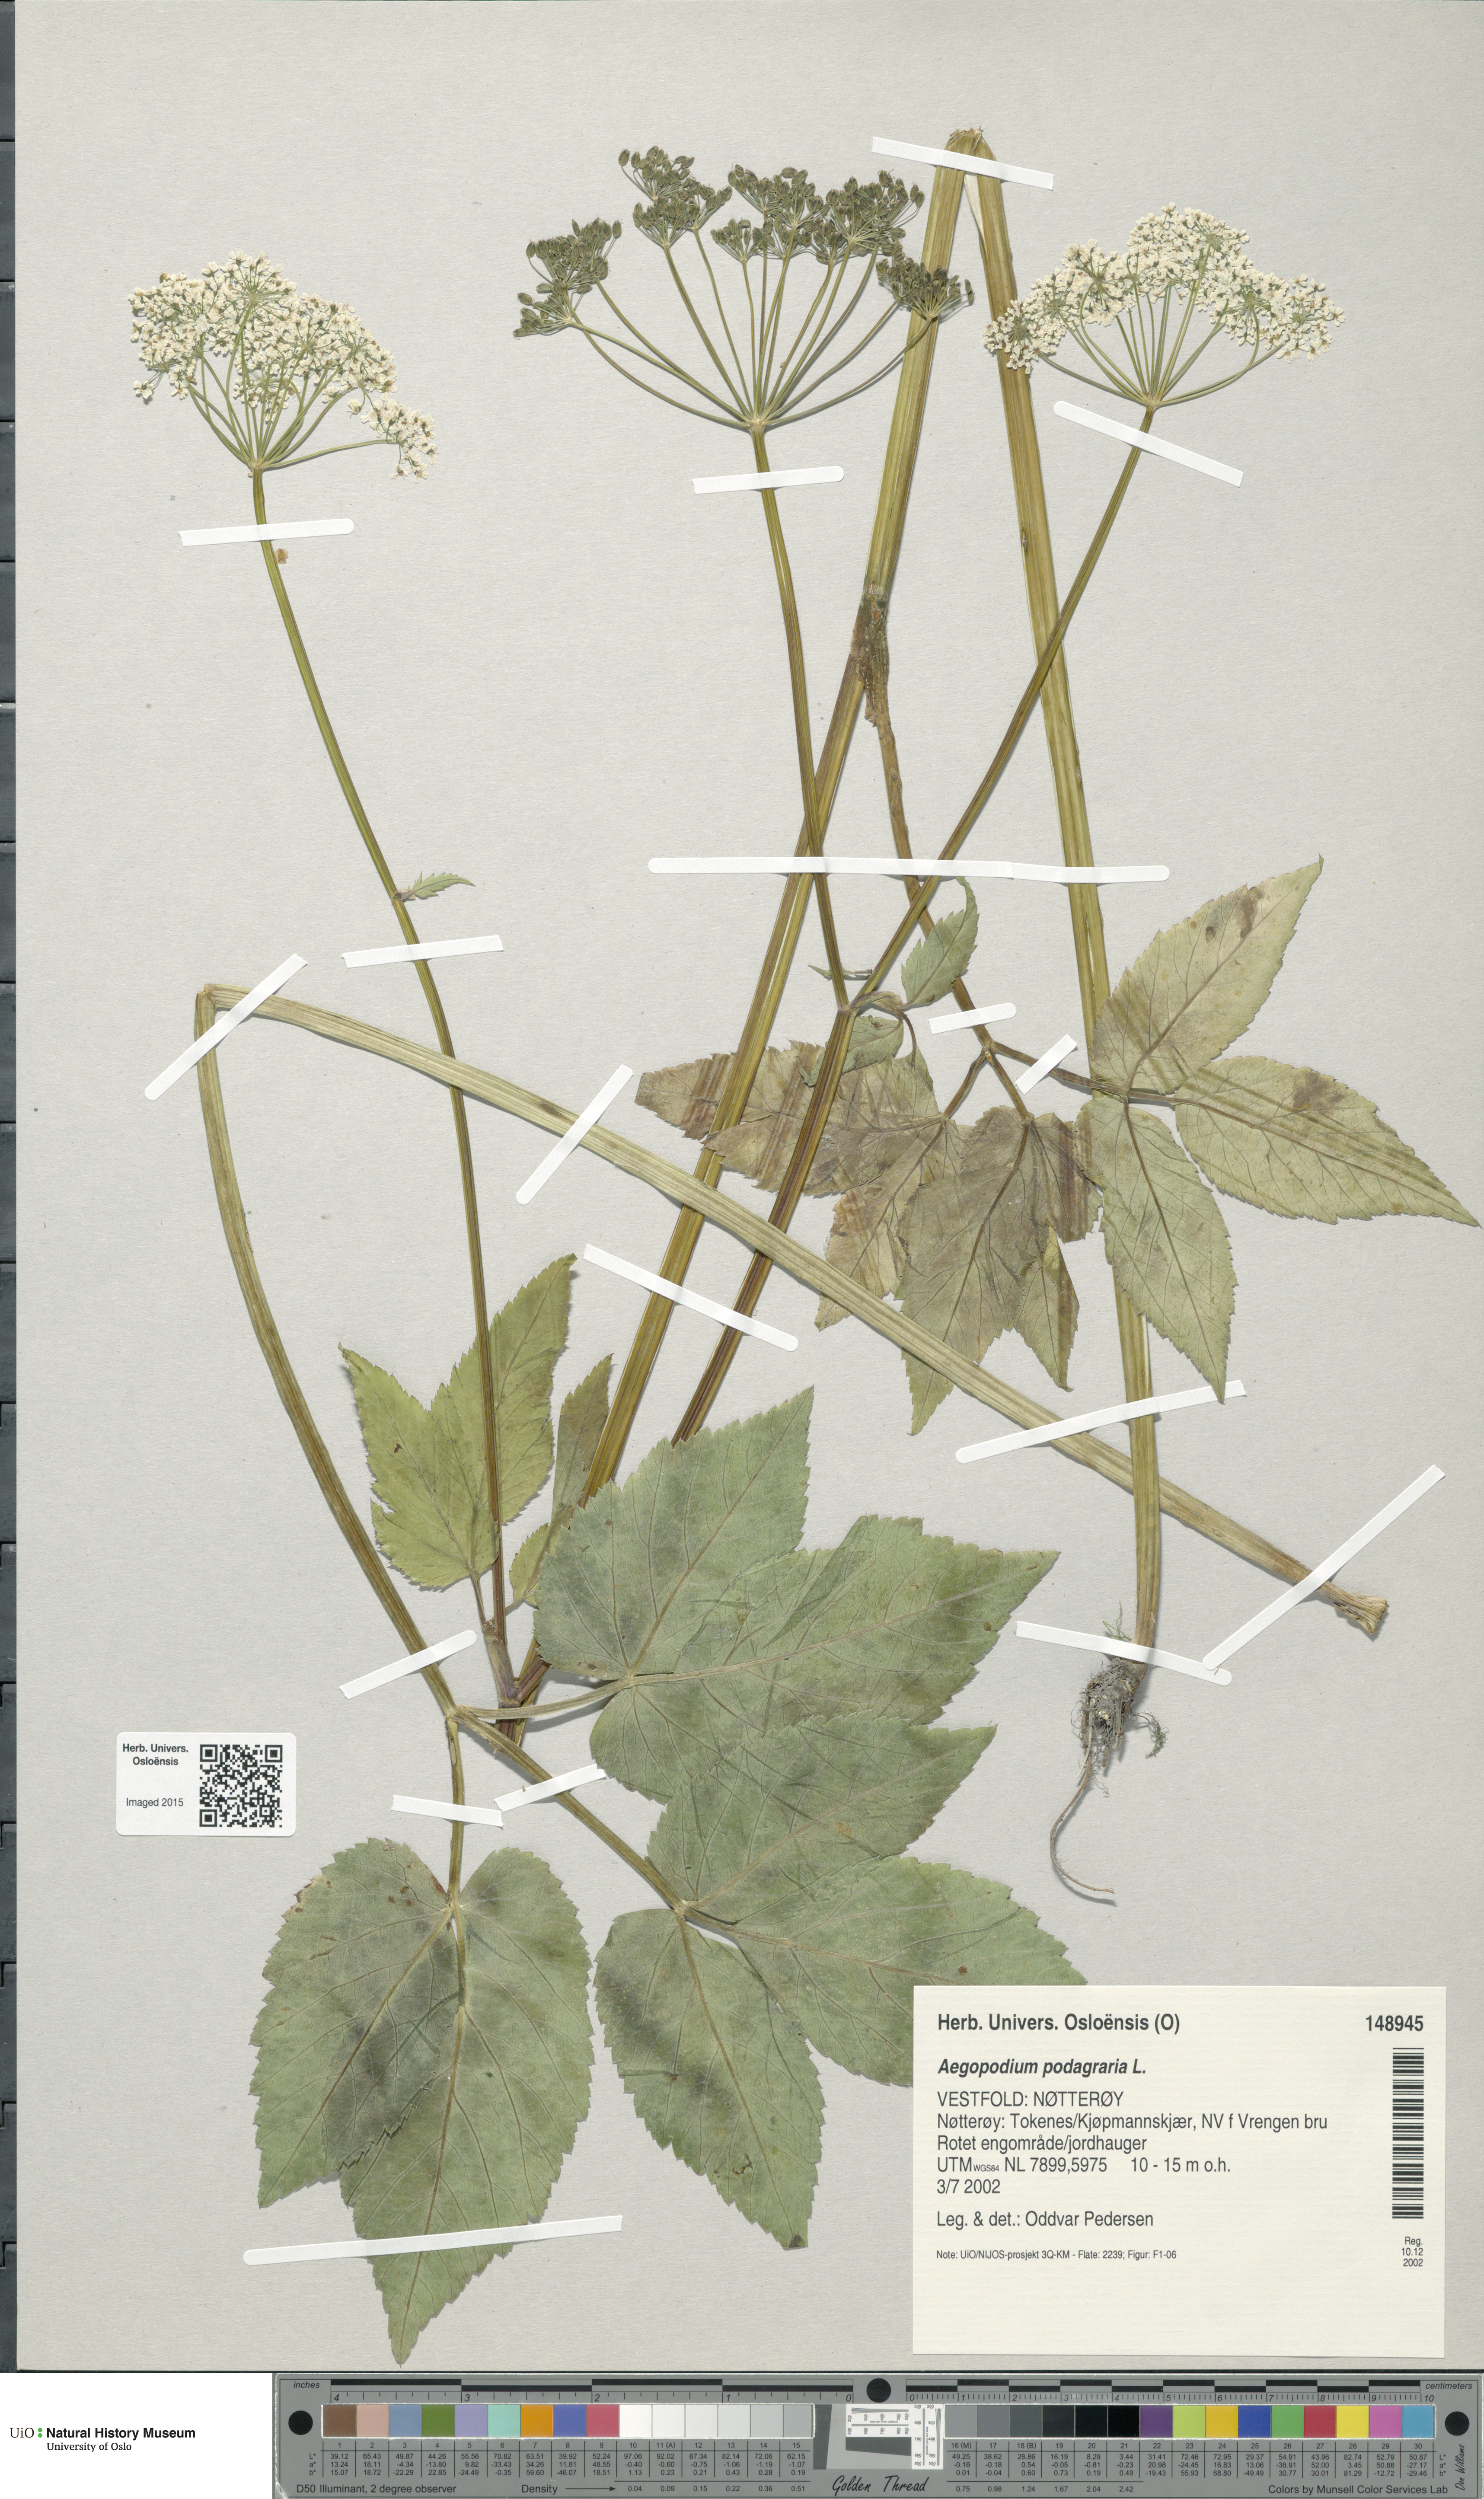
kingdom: Plantae
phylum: Tracheophyta
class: Magnoliopsida
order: Apiales
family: Apiaceae
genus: Aegopodium
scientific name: Aegopodium podagraria
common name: Ground-elder
